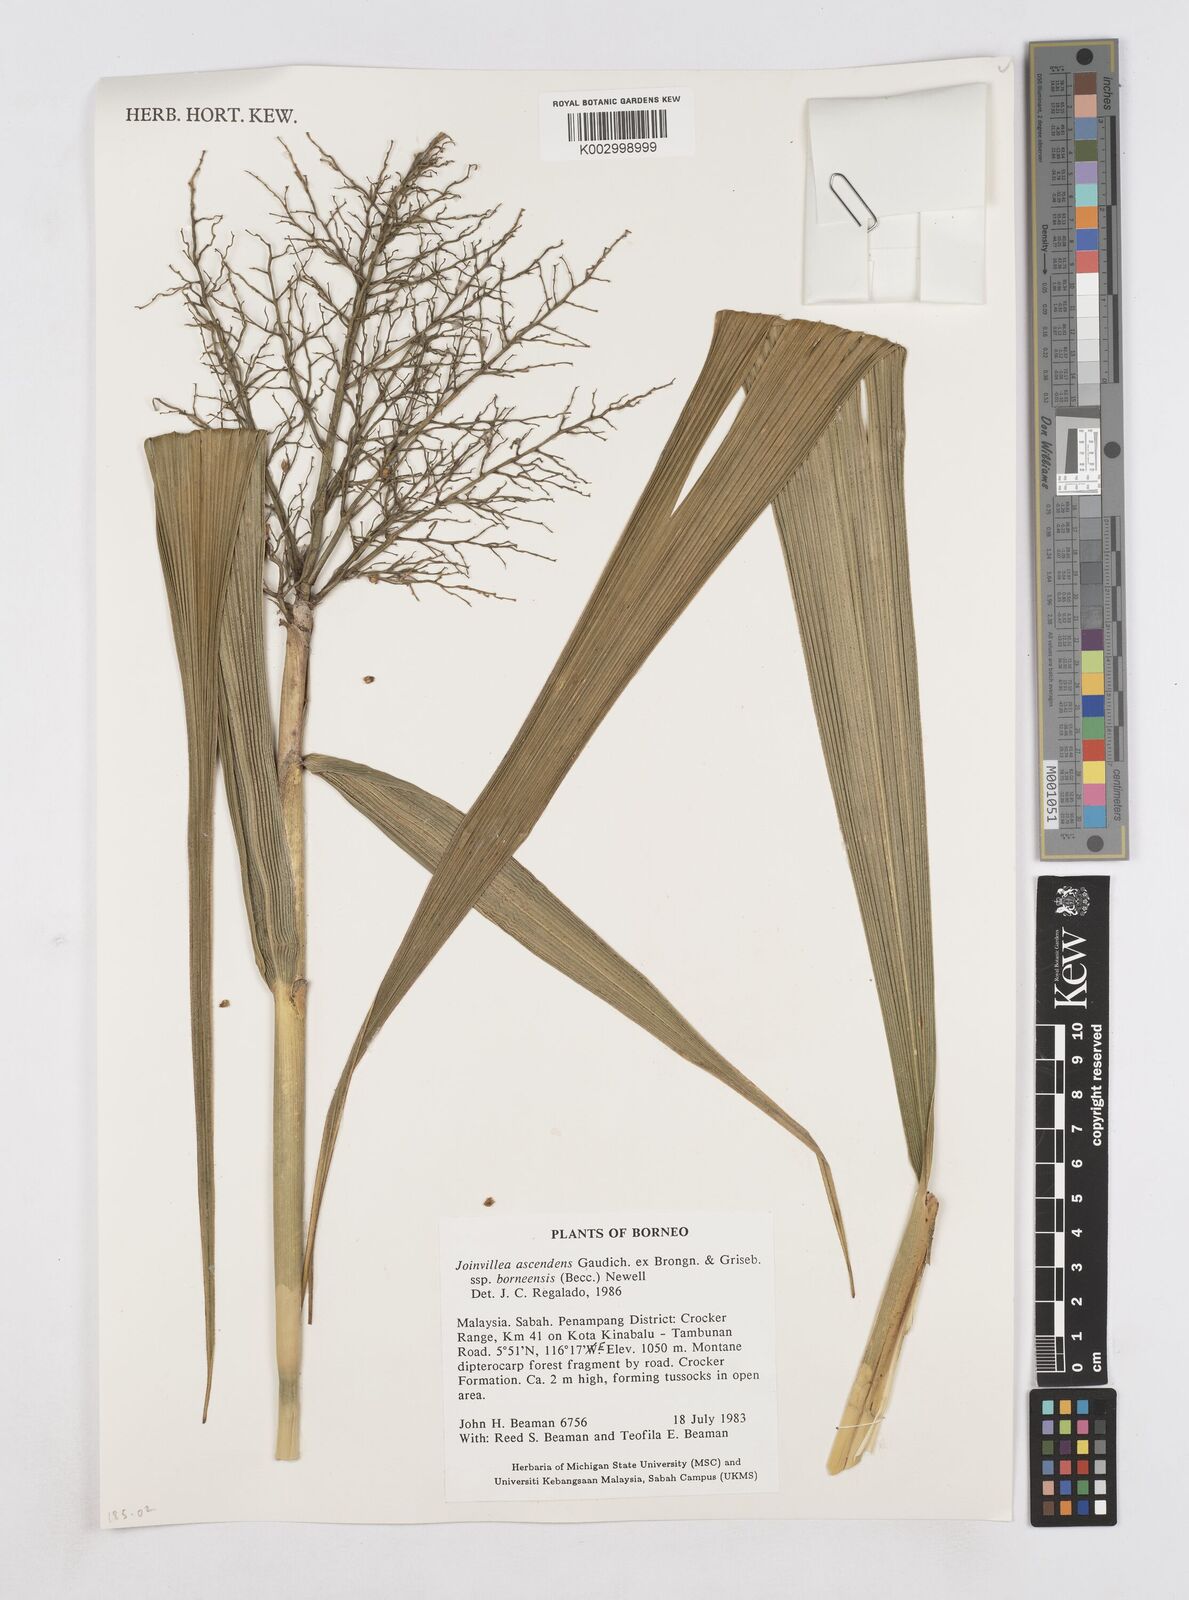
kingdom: Plantae
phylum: Tracheophyta
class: Liliopsida
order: Poales
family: Joinvilleaceae
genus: Joinvillea
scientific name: Joinvillea borneensis
